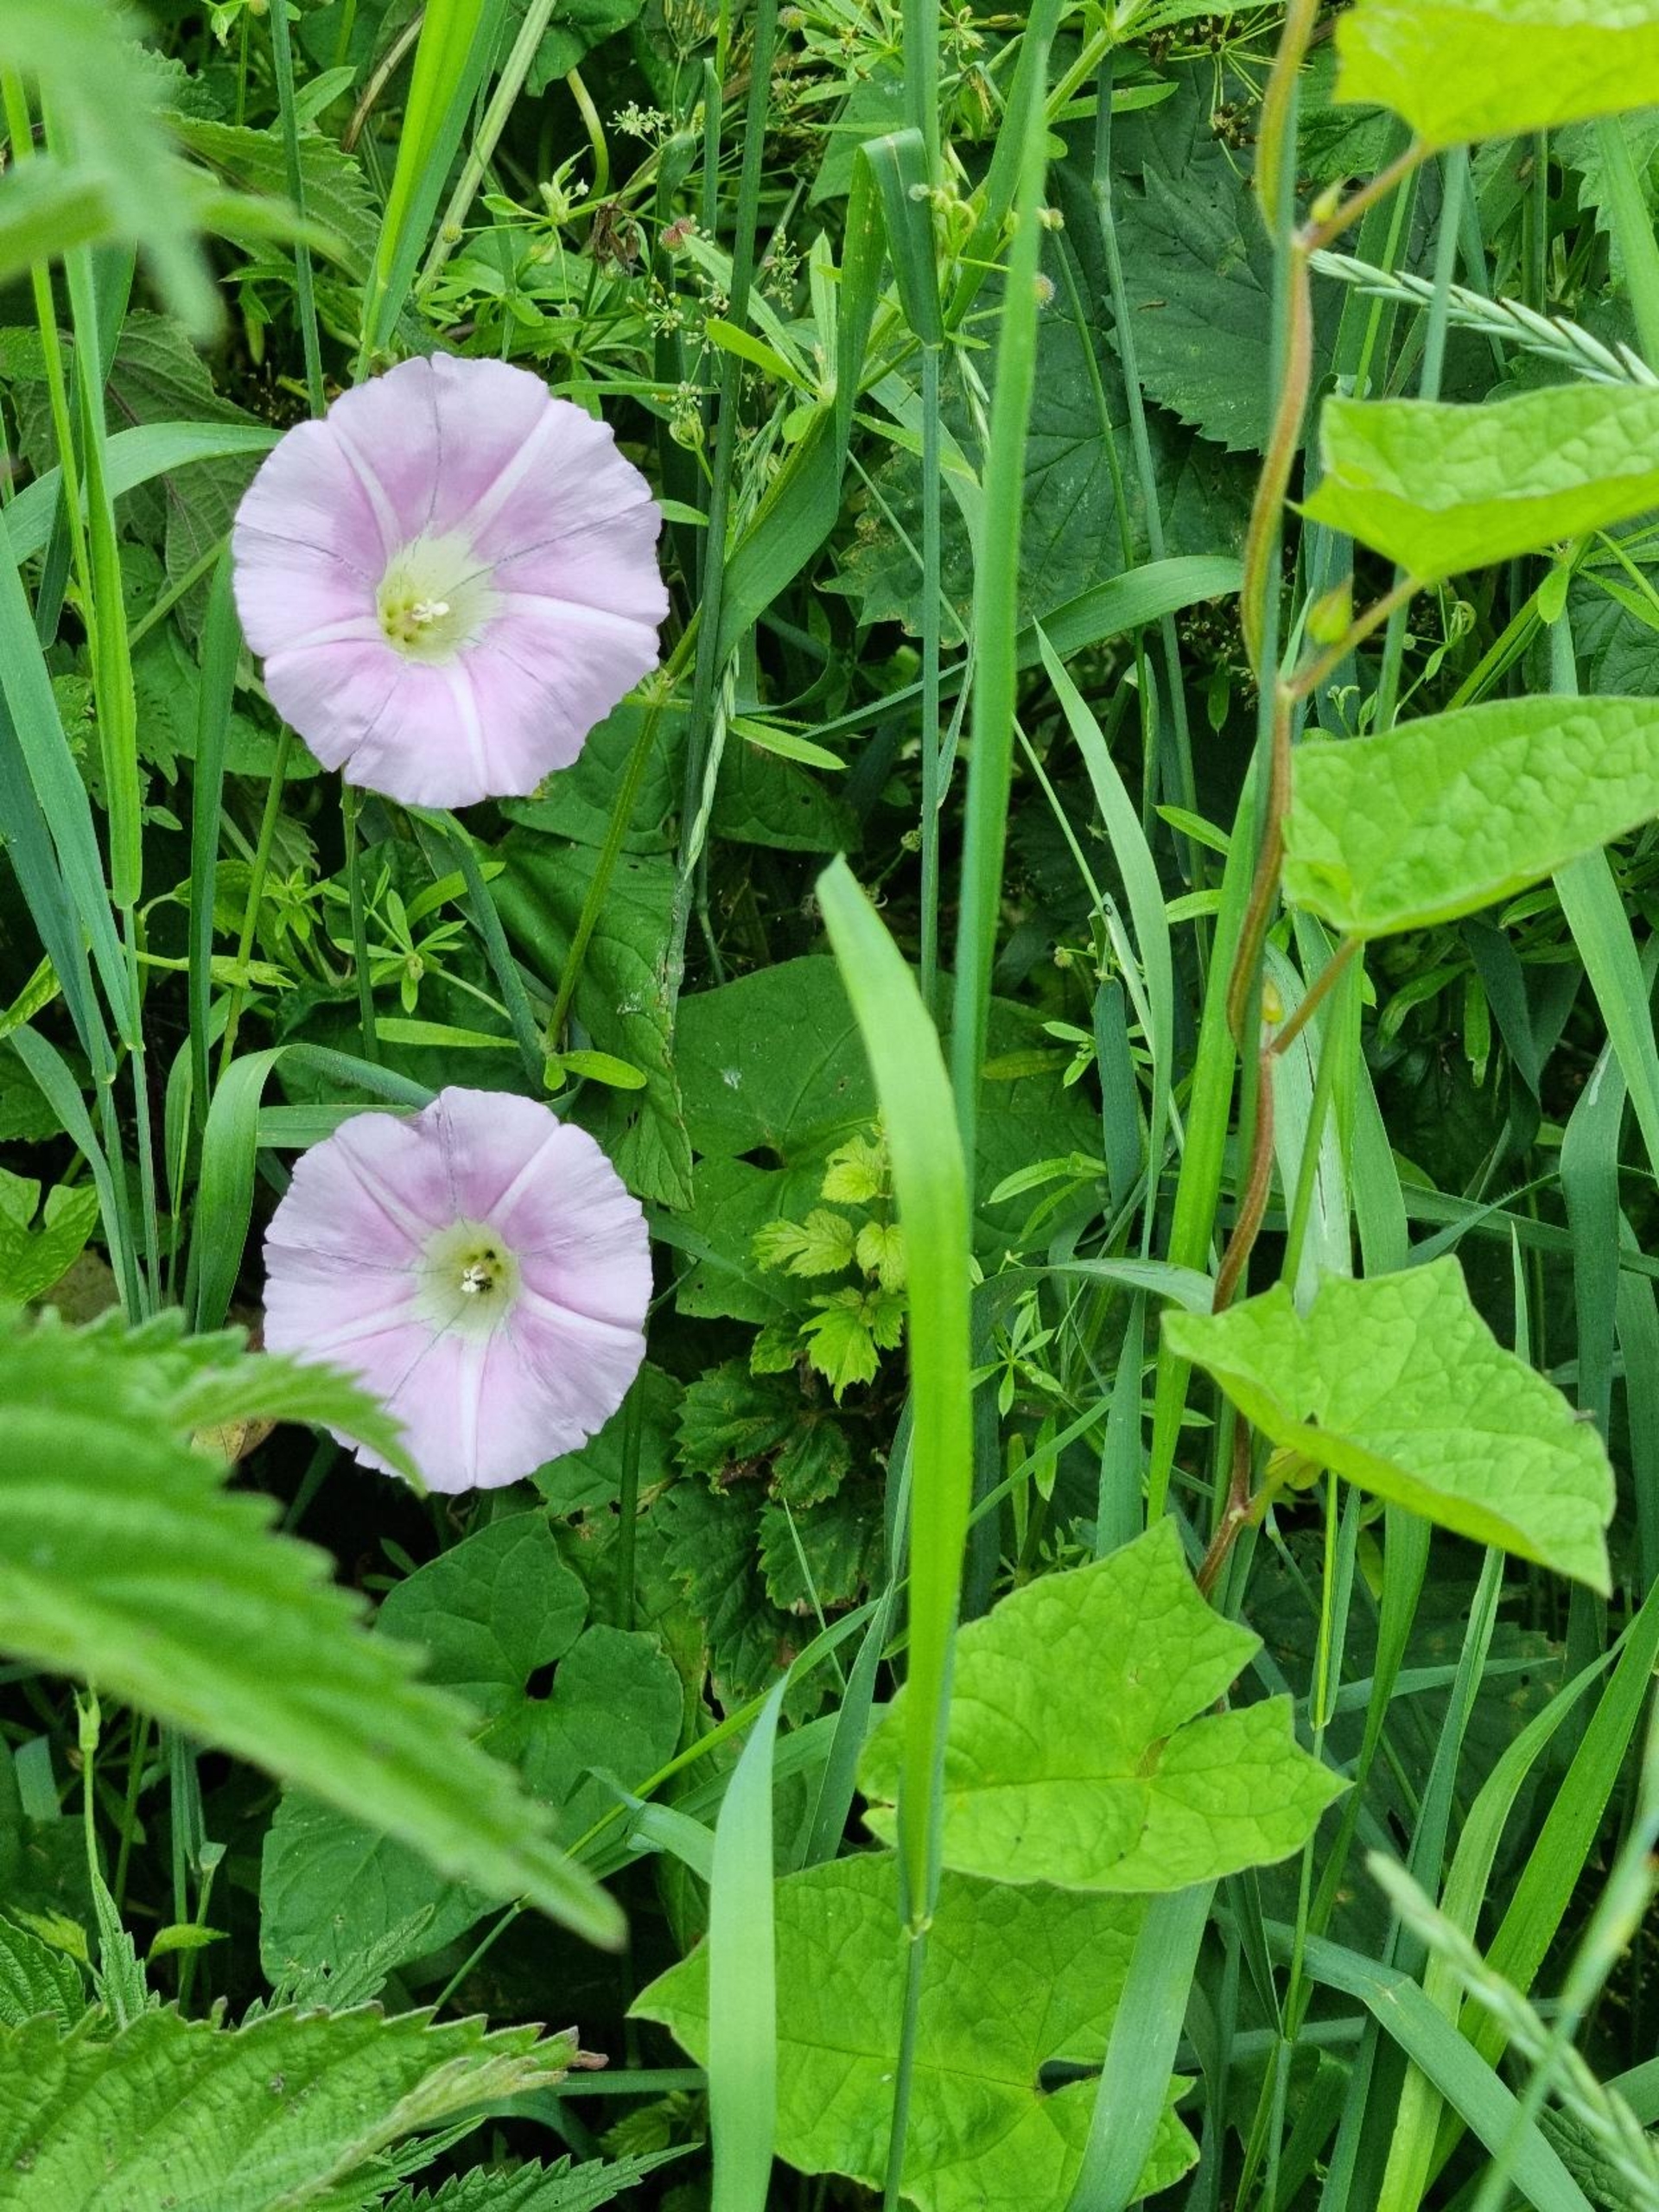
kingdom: Plantae
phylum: Tracheophyta
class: Magnoliopsida
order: Solanales
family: Convolvulaceae
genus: Calystegia
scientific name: Calystegia pulchra
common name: Have-snerle
